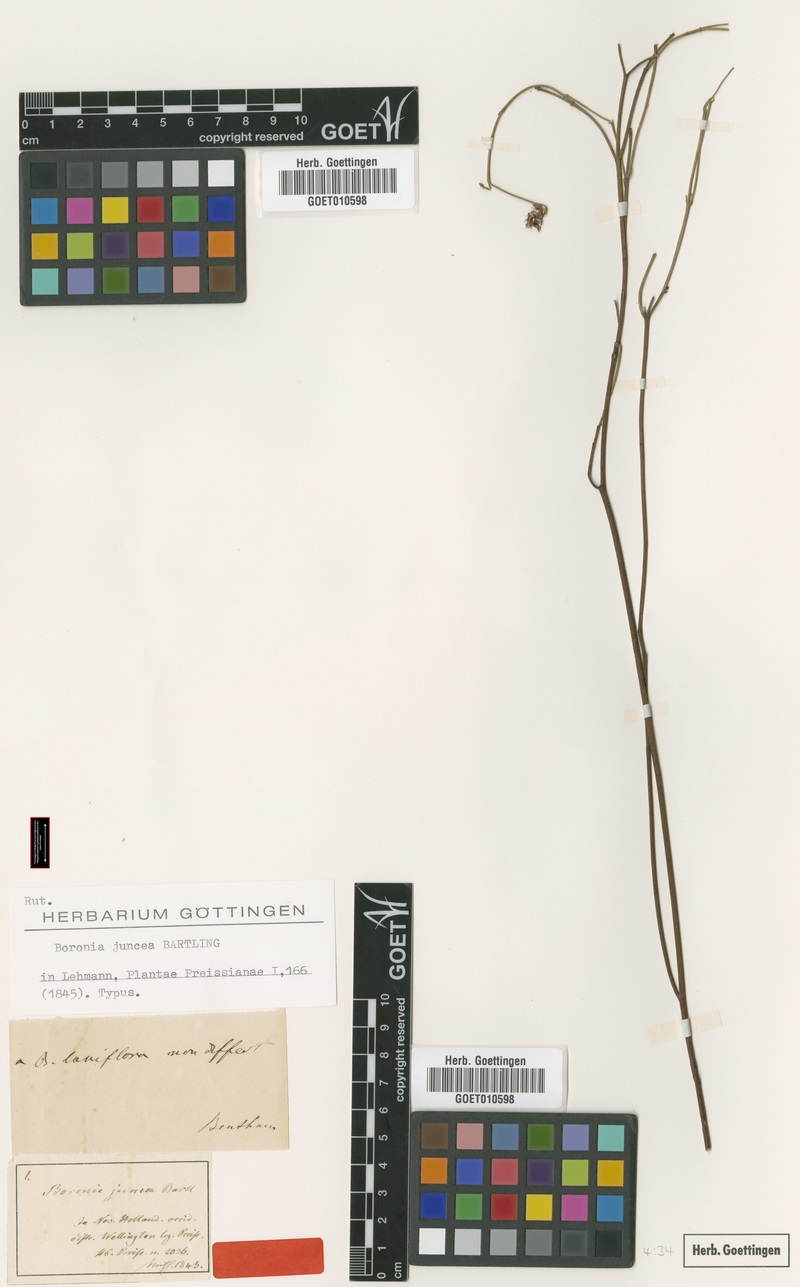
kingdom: Plantae
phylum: Tracheophyta
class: Magnoliopsida
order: Sapindales
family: Rutaceae
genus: Boronia
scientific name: Boronia juncea
